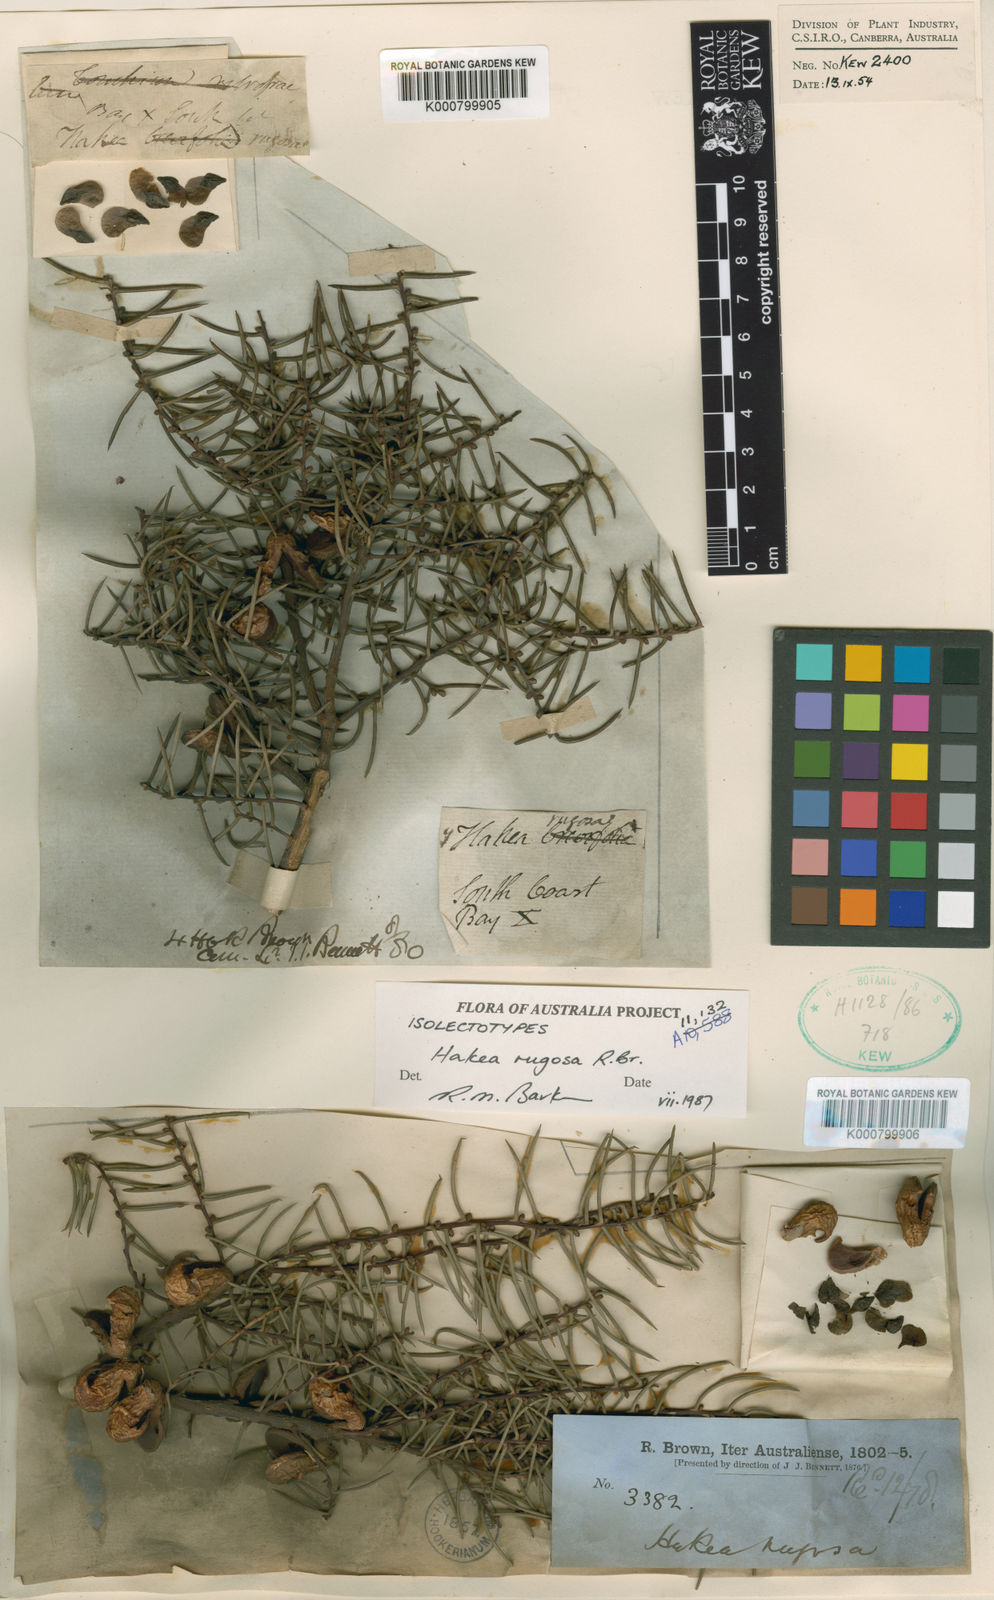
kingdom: Plantae
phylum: Tracheophyta
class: Magnoliopsida
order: Proteales
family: Proteaceae
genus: Hakea
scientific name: Hakea rugosa
